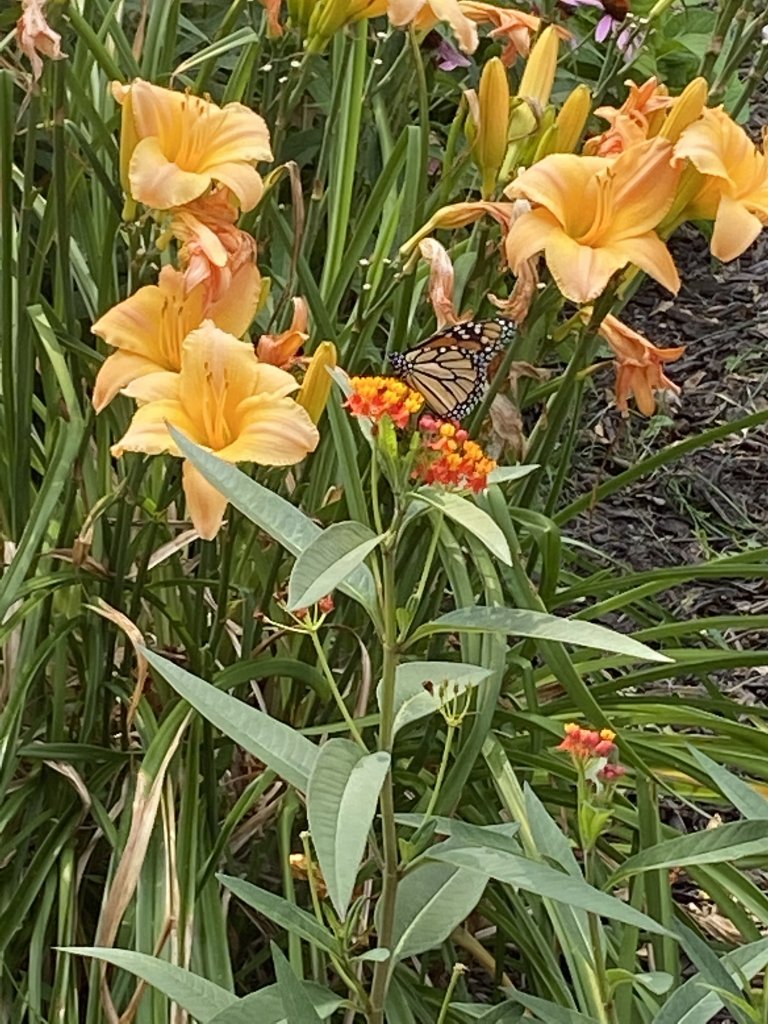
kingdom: Animalia
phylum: Arthropoda
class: Insecta
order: Lepidoptera
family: Nymphalidae
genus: Danaus
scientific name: Danaus plexippus
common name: Monarch
